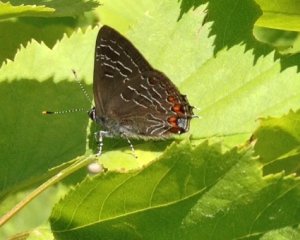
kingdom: Animalia
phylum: Arthropoda
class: Insecta
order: Lepidoptera
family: Lycaenidae
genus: Satyrium
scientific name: Satyrium liparops
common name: Striped Hairstreak
